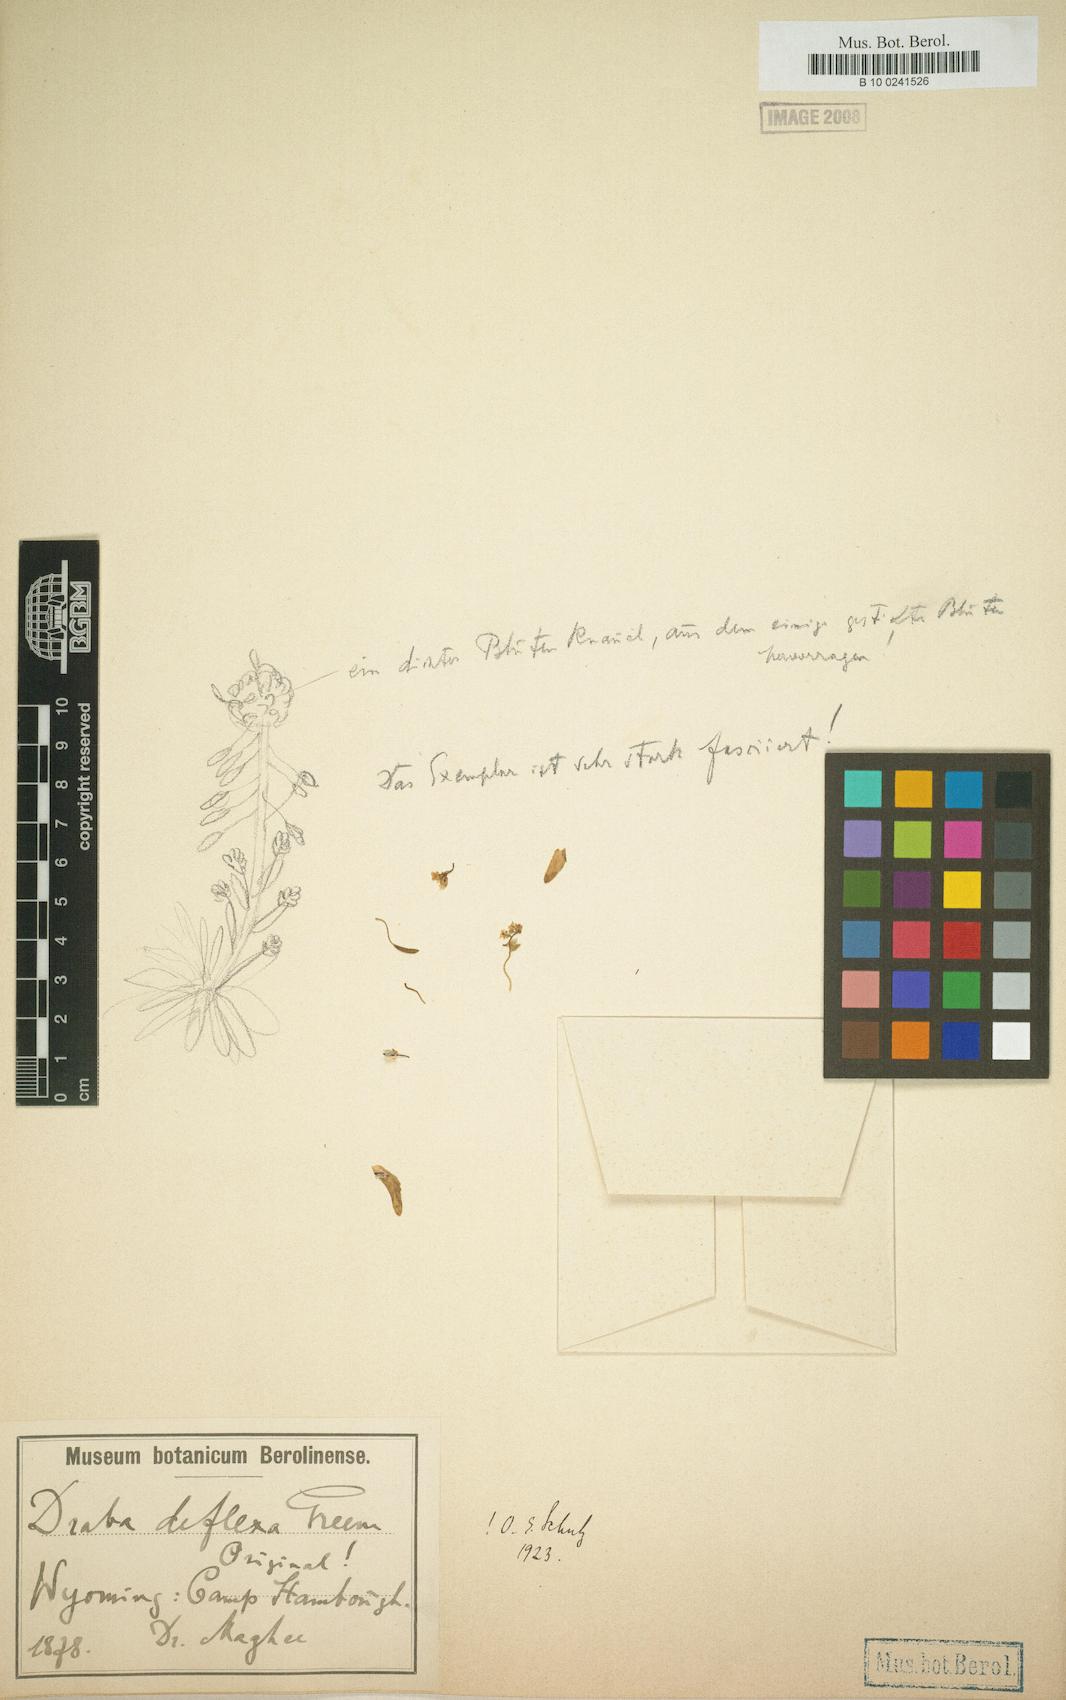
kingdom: Plantae
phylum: Tracheophyta
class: Magnoliopsida
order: Brassicales
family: Brassicaceae
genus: Draba
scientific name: Draba albertina
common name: Slender draba
